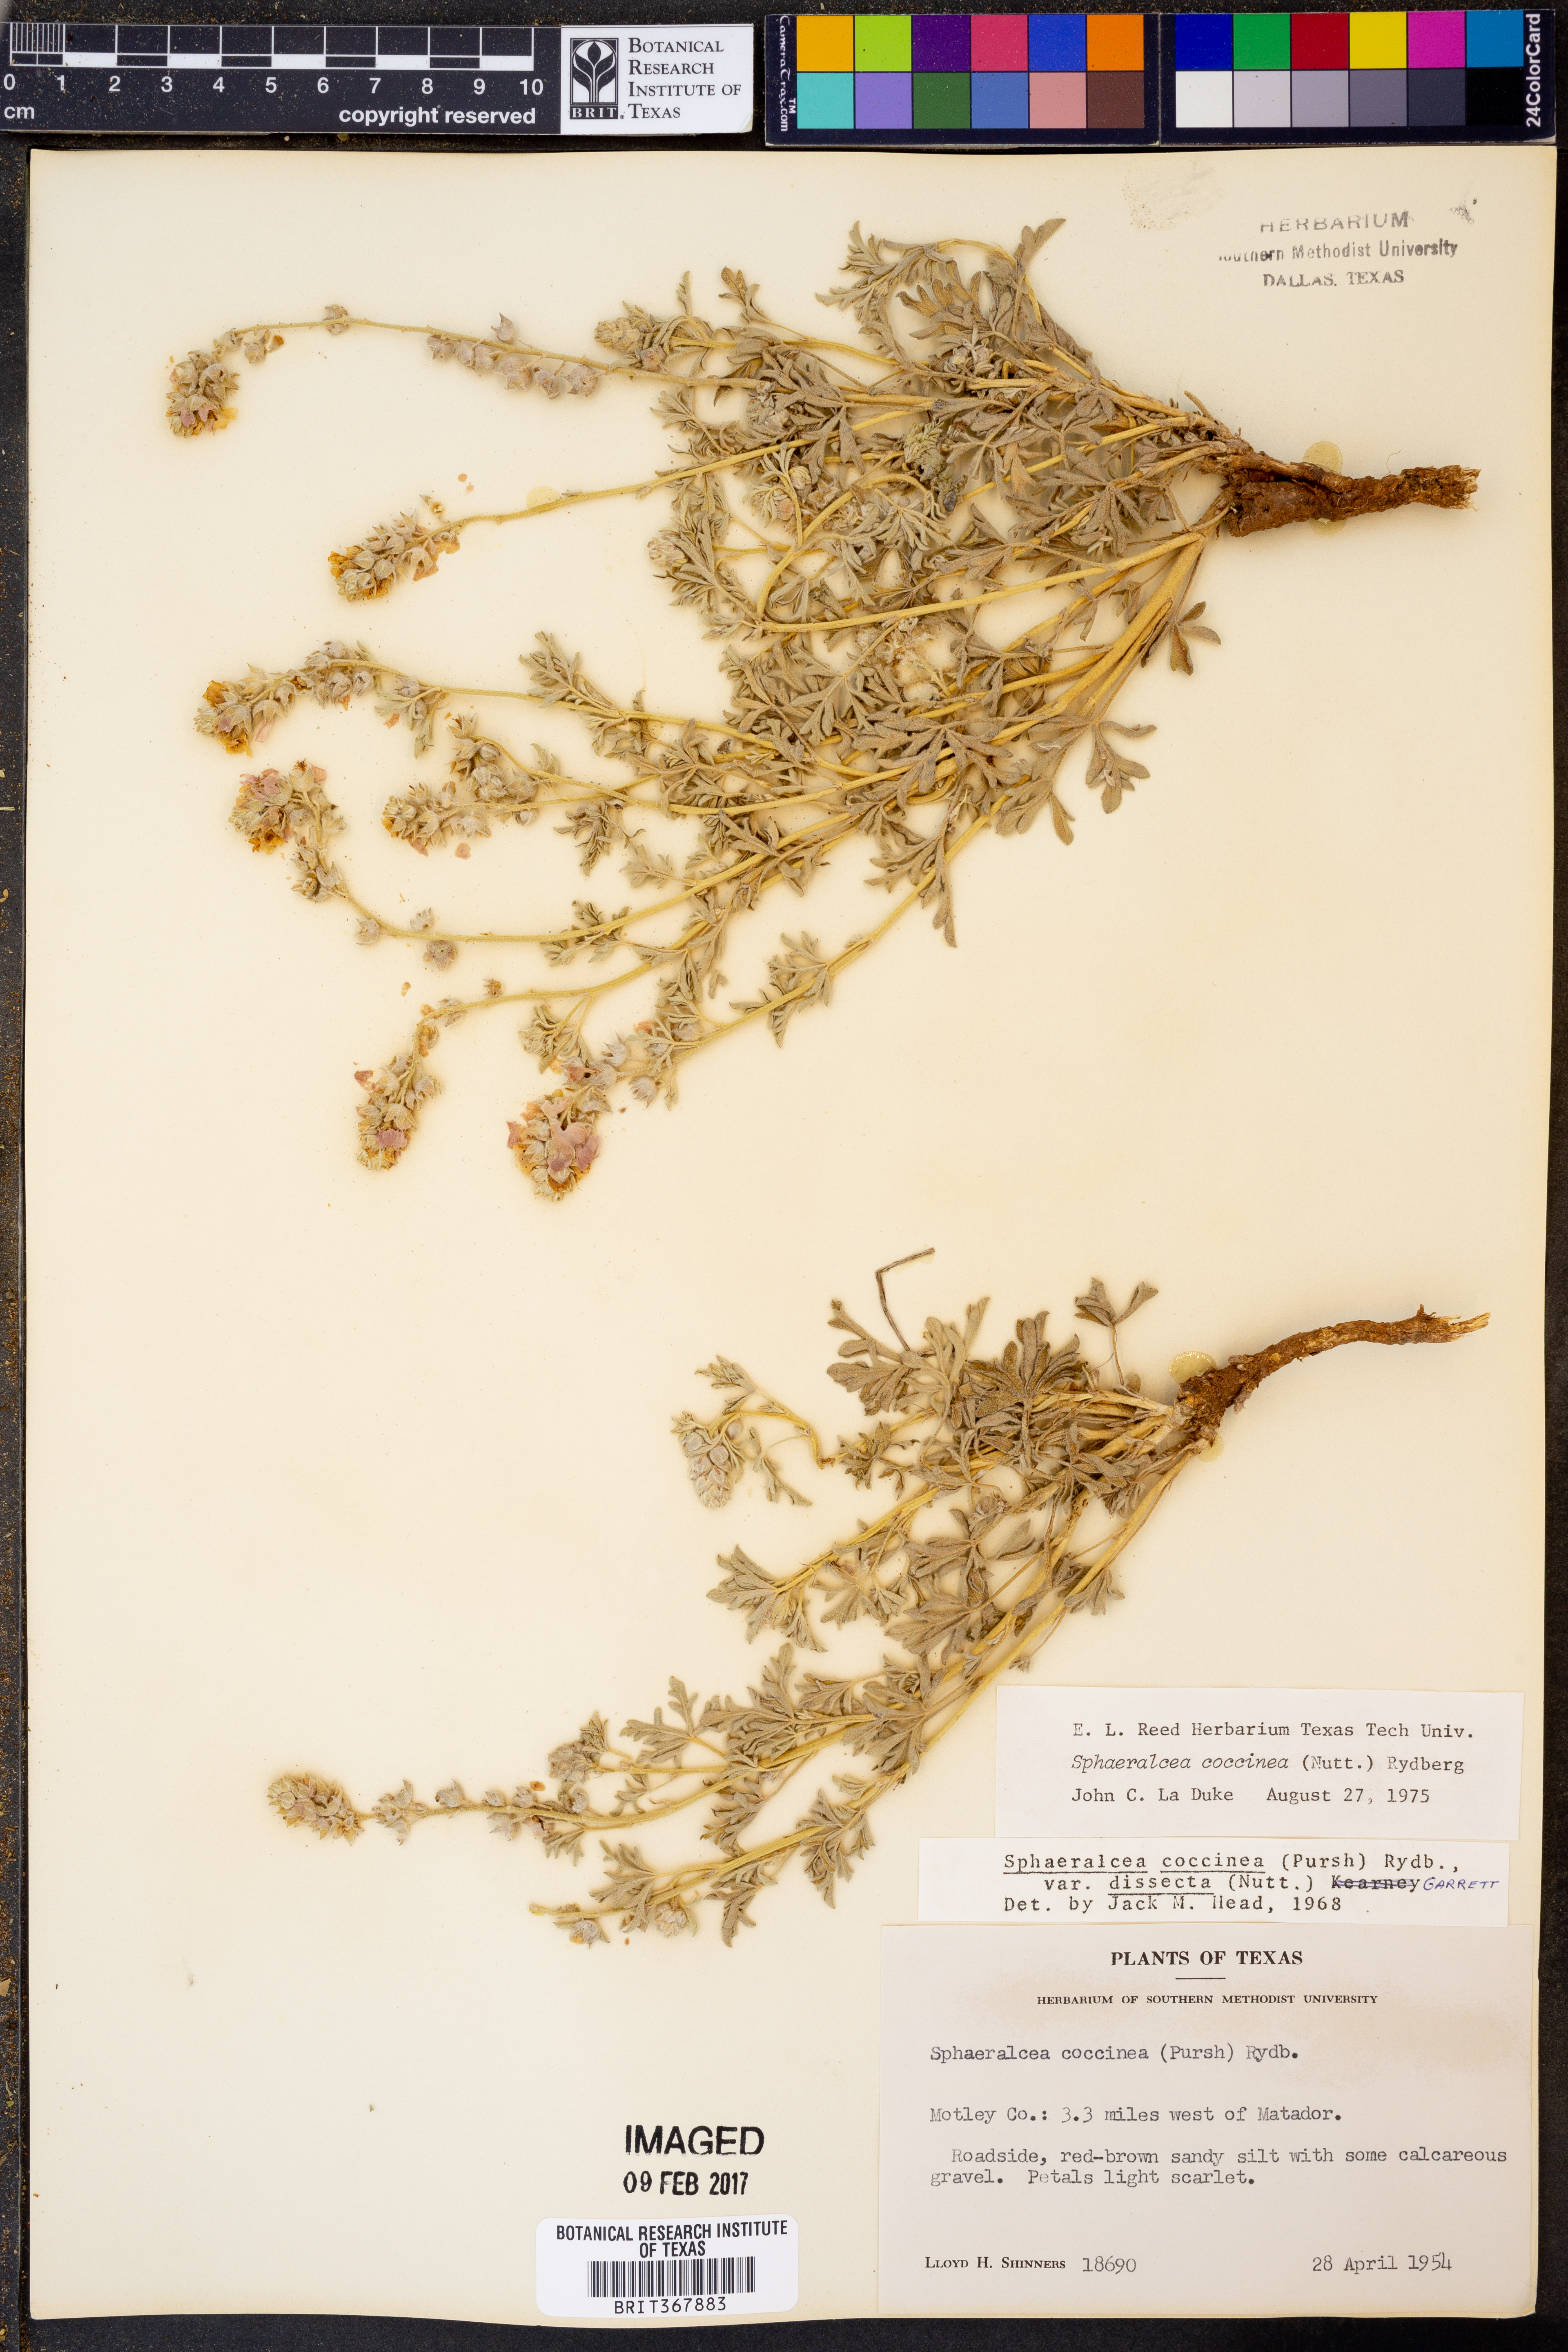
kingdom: Plantae
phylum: Tracheophyta
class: Magnoliopsida
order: Malvales
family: Malvaceae
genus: Sphaeralcea
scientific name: Sphaeralcea coccinea
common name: Moss-rose
